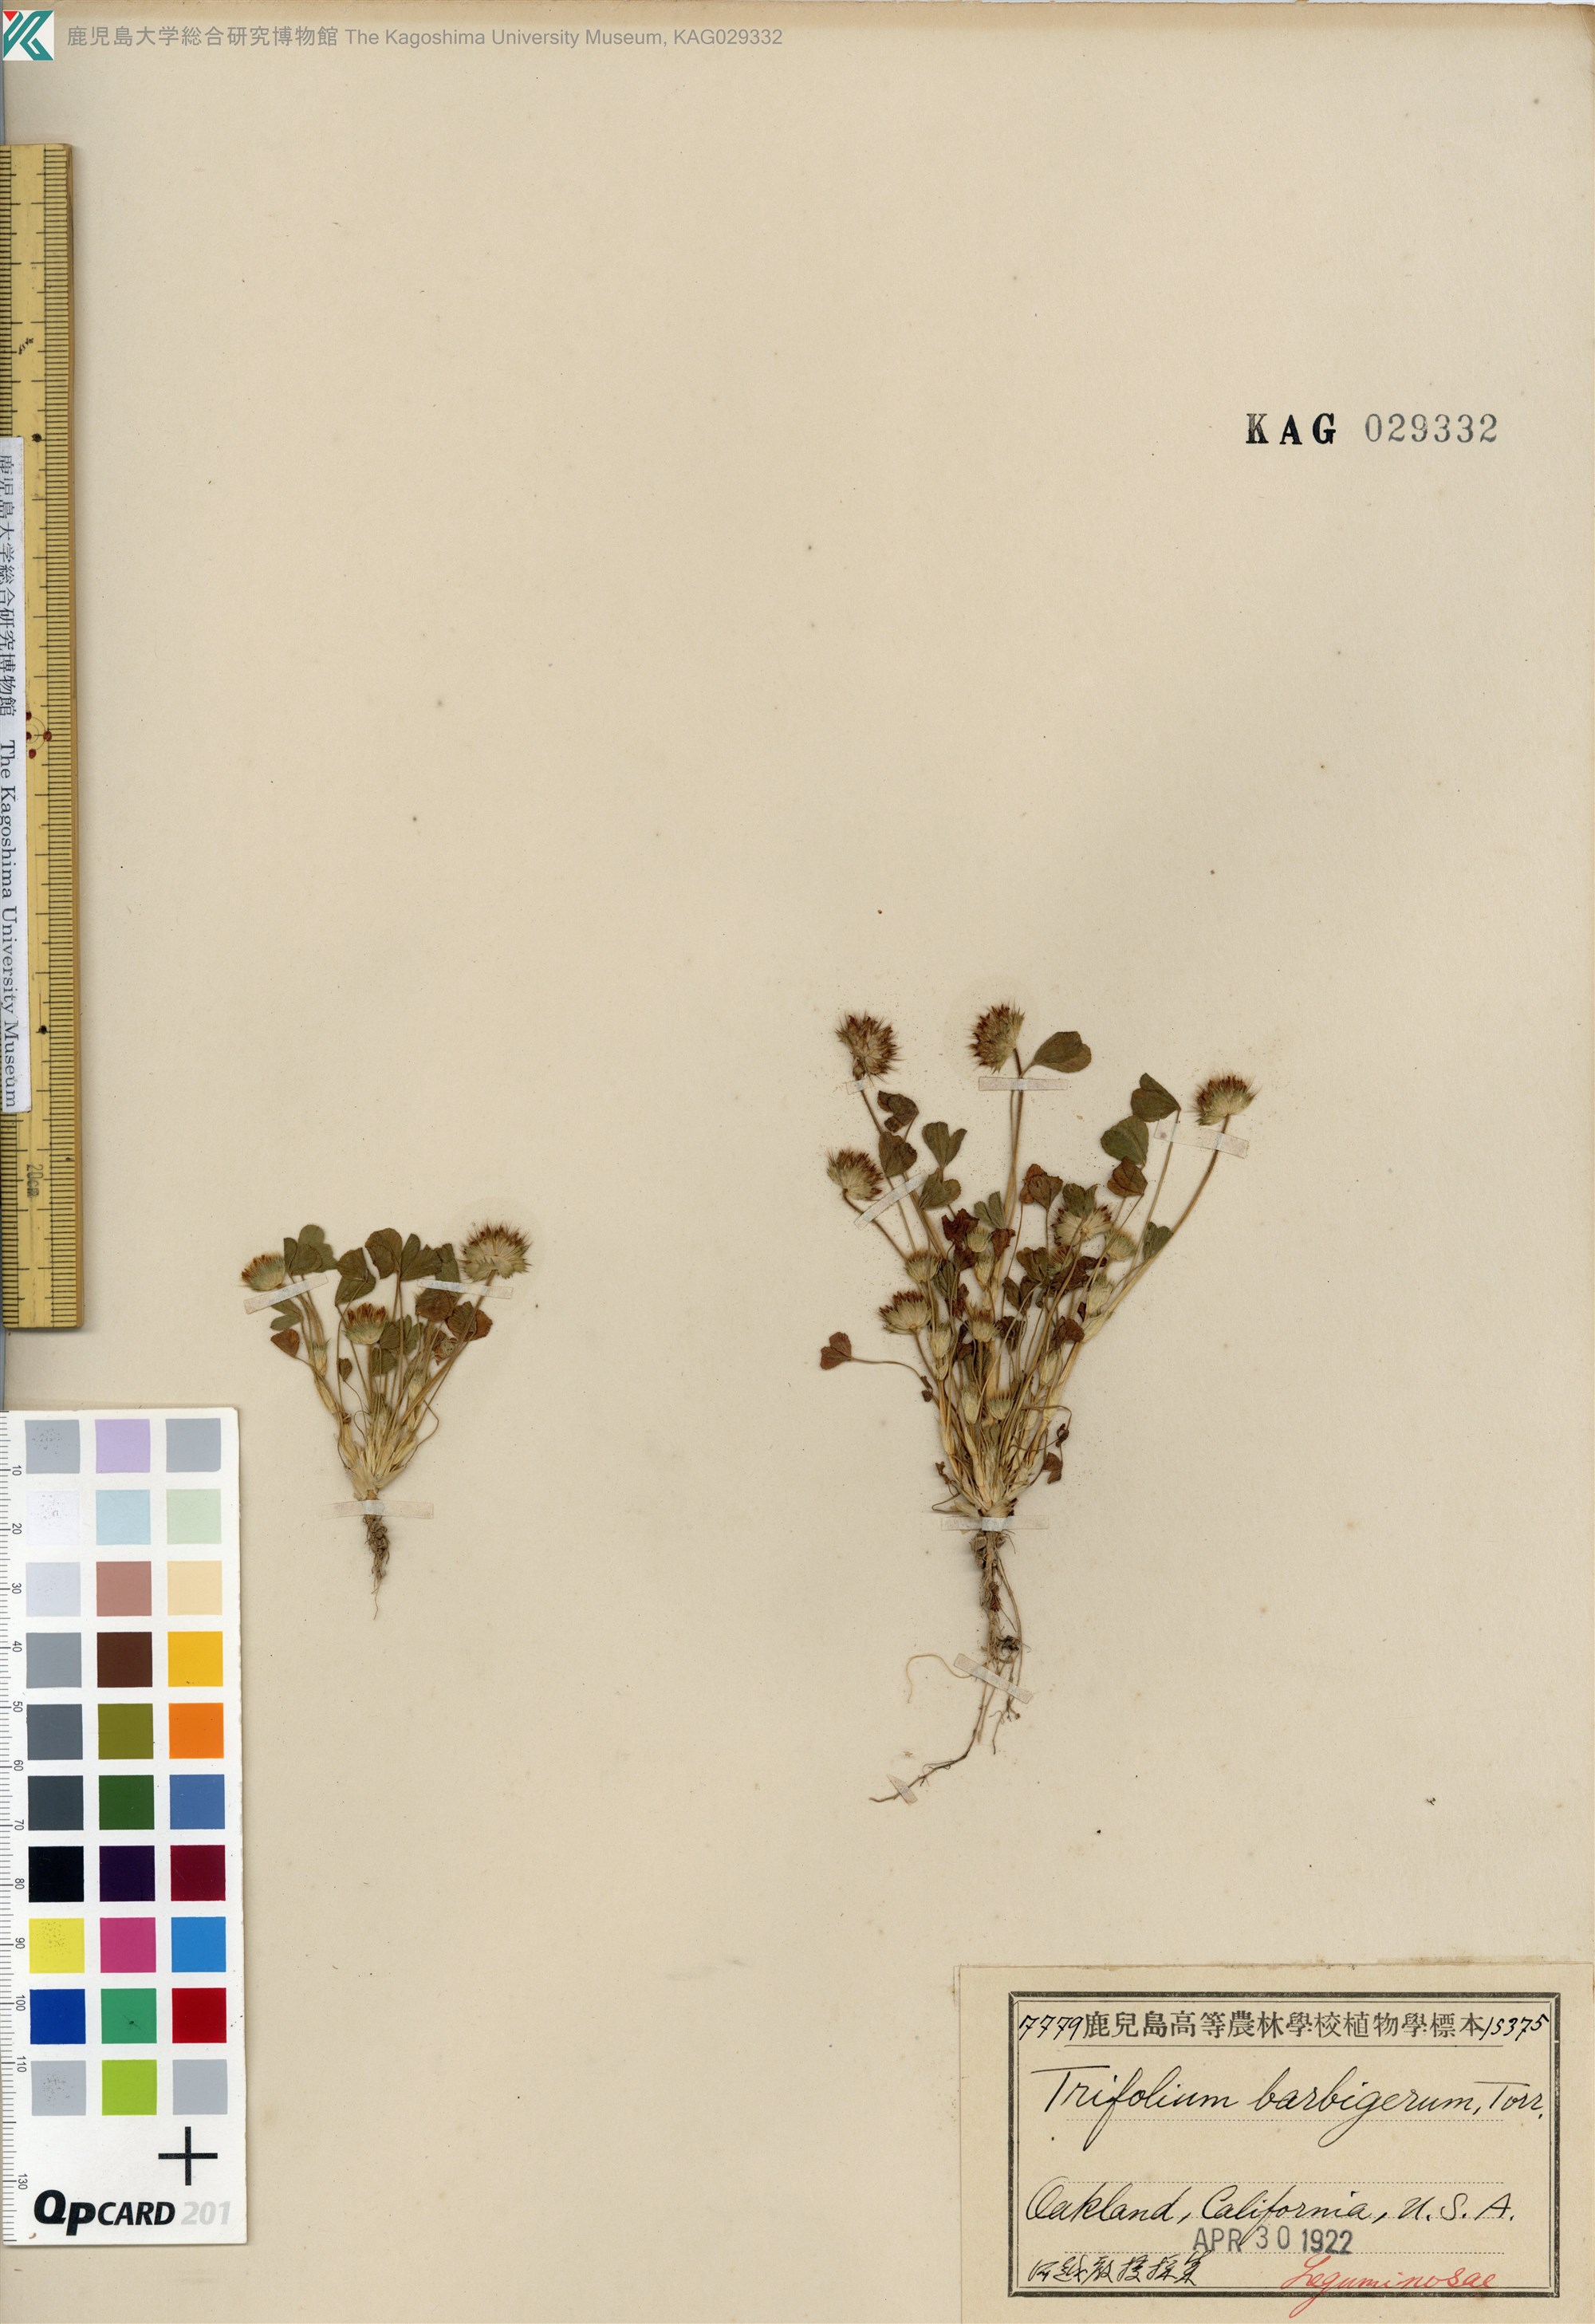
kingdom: Plantae
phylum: Tracheophyta
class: Magnoliopsida
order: Fabales
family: Fabaceae
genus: Trifolium
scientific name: Trifolium barbigerum
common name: Bearded clover
